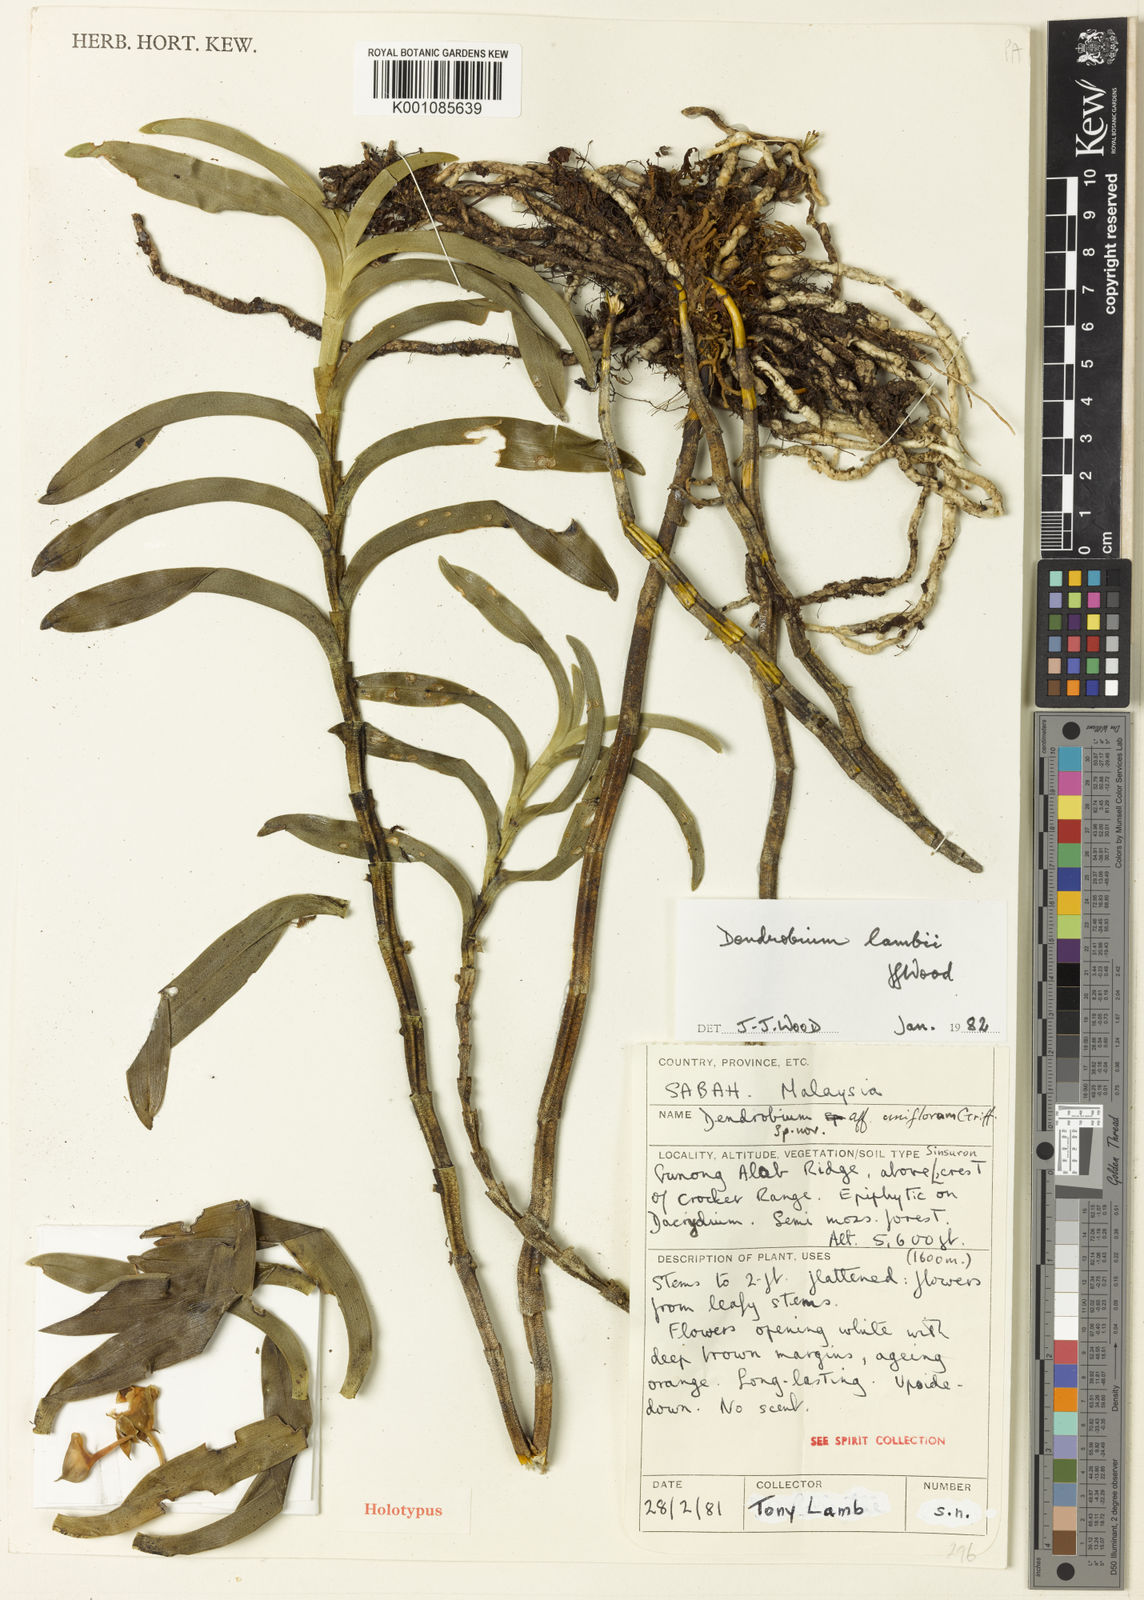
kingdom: Plantae
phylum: Tracheophyta
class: Liliopsida
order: Asparagales
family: Orchidaceae
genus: Dendrobium
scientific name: Dendrobium lambii
